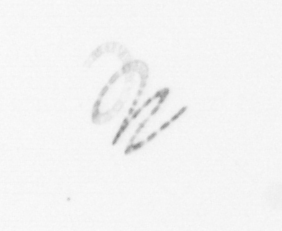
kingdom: Chromista
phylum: Ochrophyta
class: Bacillariophyceae
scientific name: Bacillariophyceae
